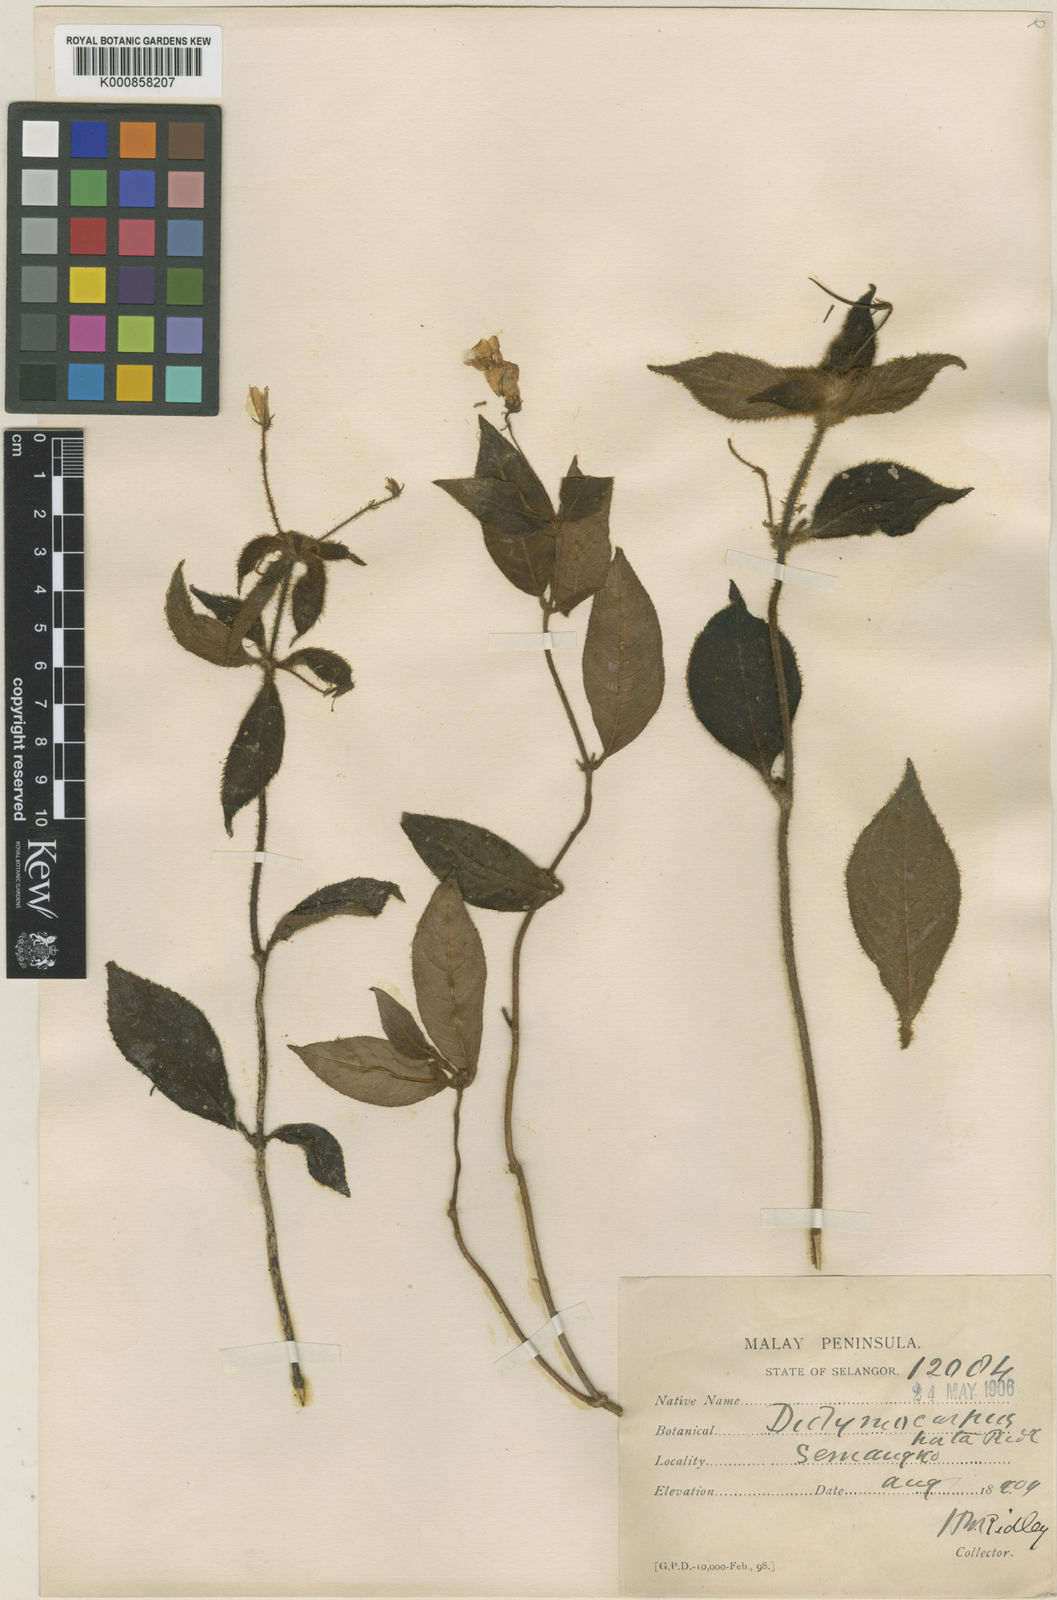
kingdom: Plantae
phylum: Tracheophyta
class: Magnoliopsida
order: Lamiales
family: Gesneriaceae
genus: Codonoboea
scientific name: Codonoboea hirta
